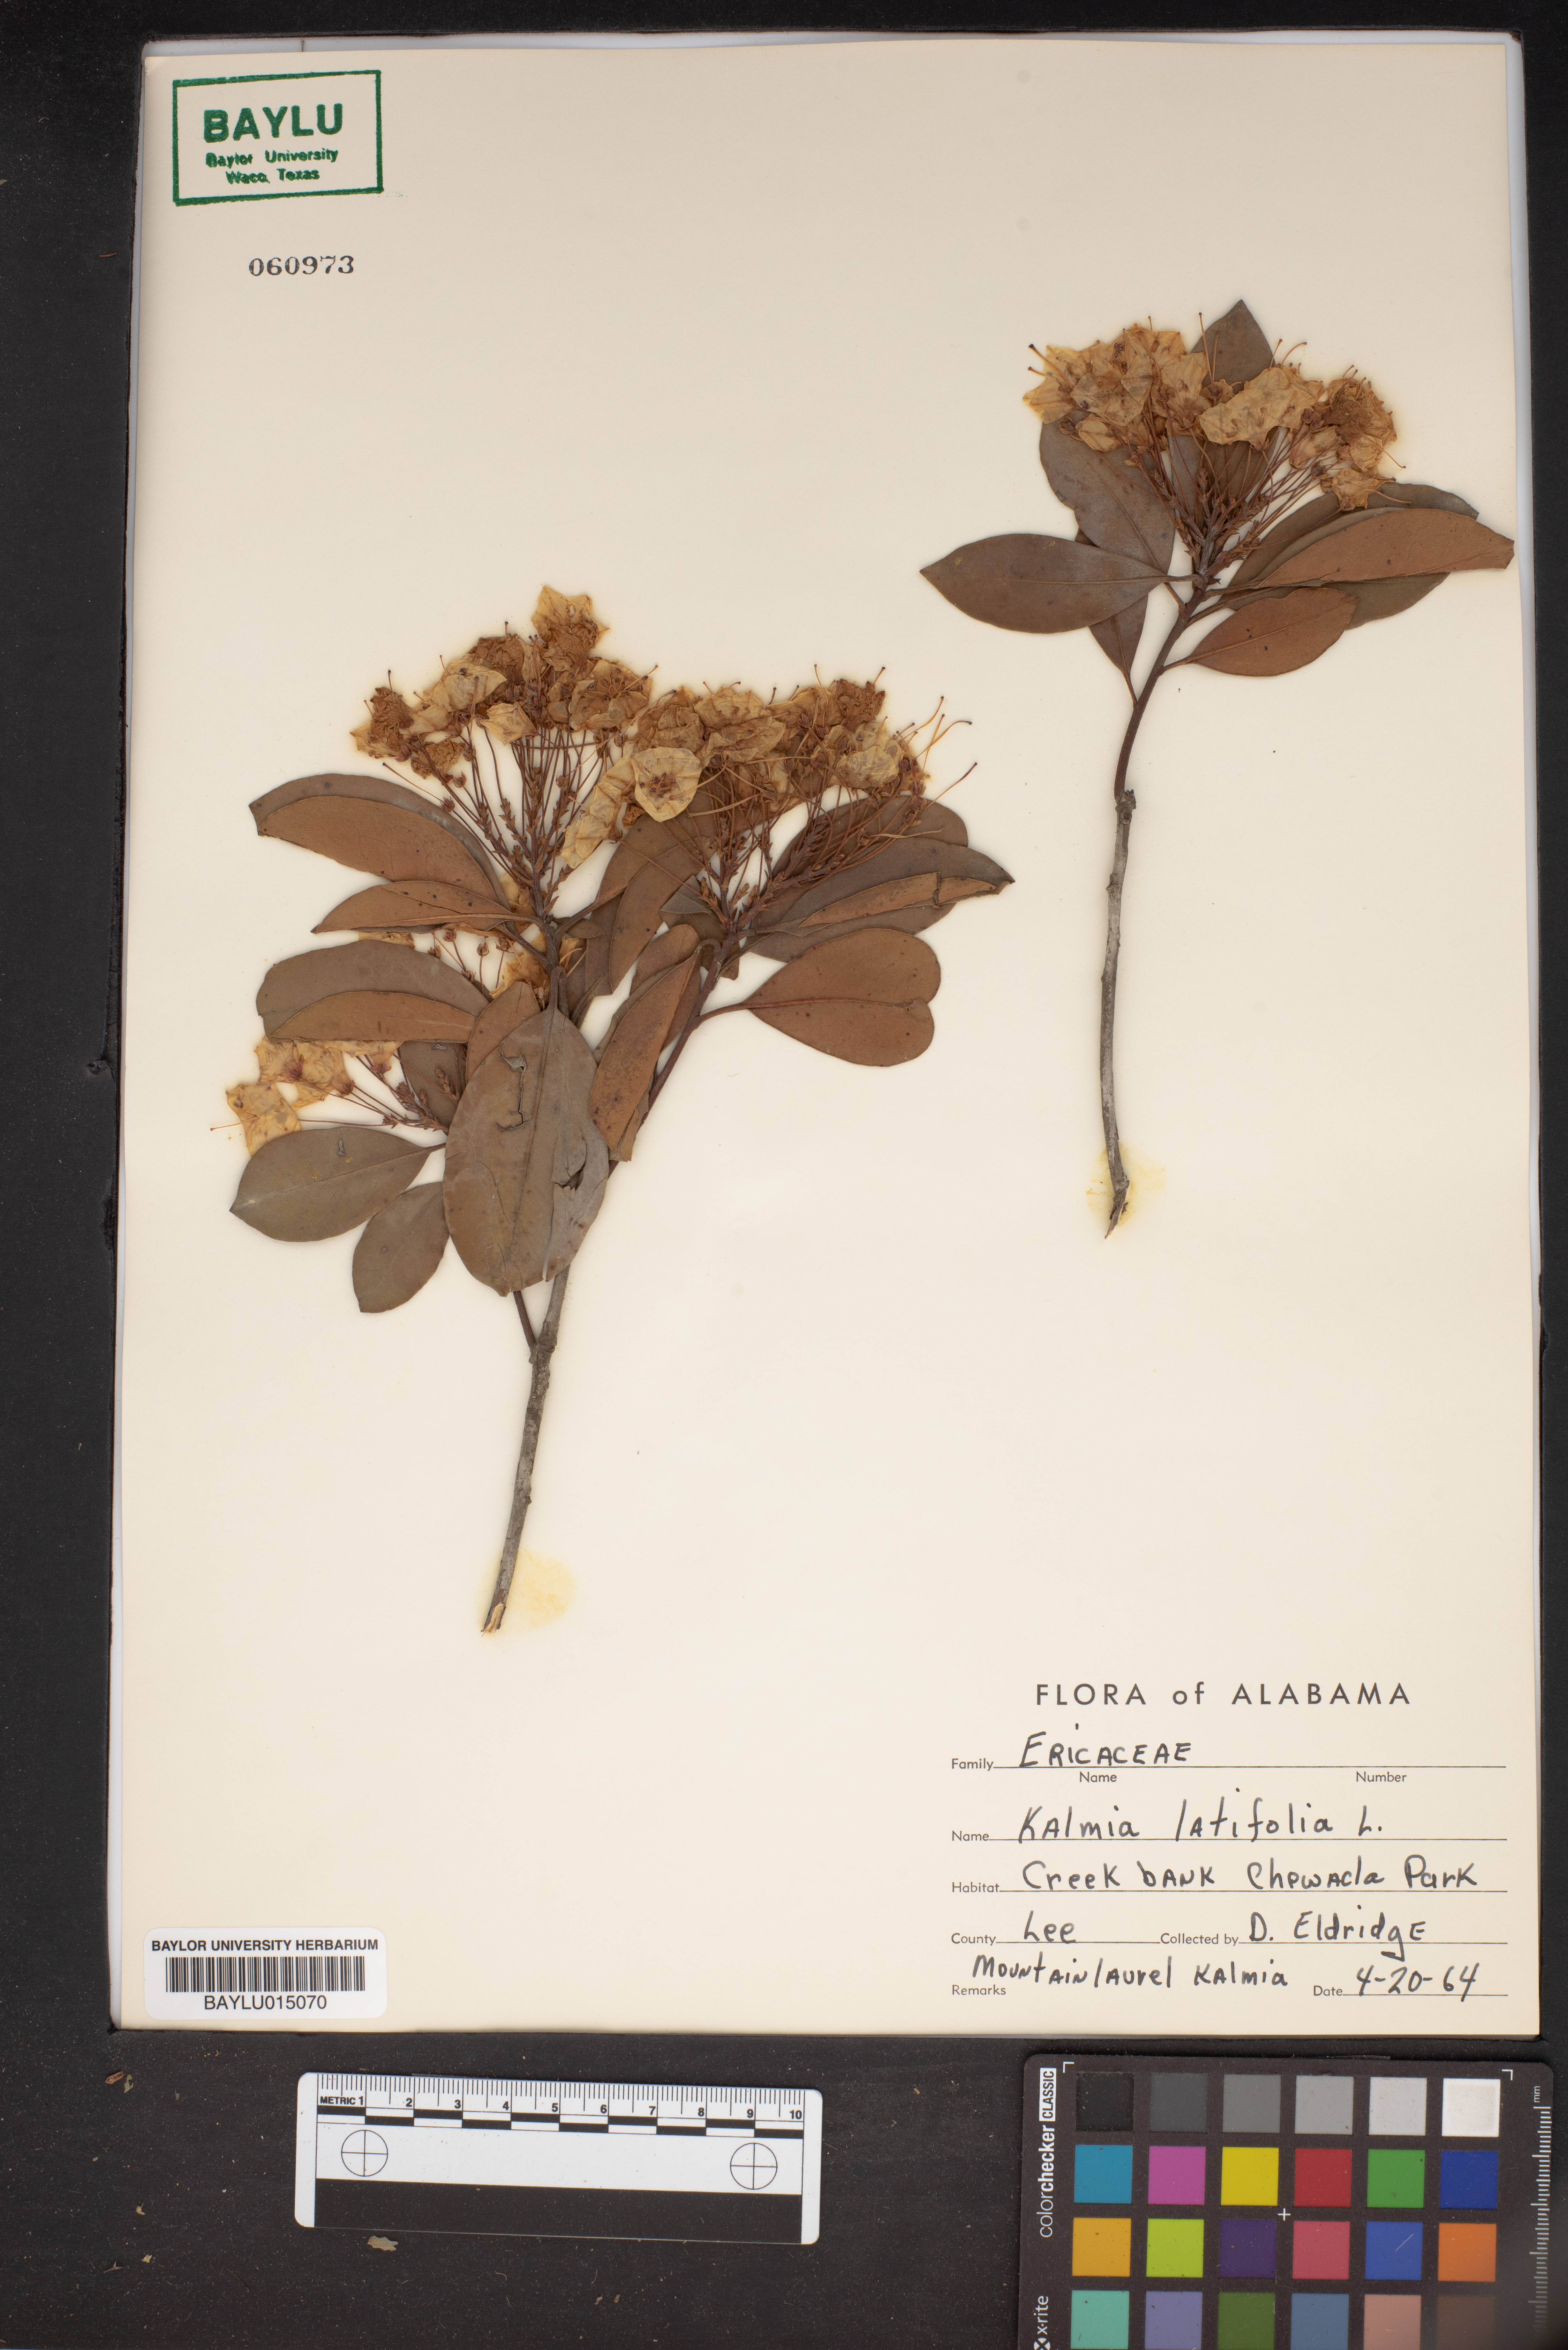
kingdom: Plantae
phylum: Tracheophyta
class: Magnoliopsida
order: Ericales
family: Ericaceae
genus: Kalmia
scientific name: Kalmia latifolia
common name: Mountain-laurel
